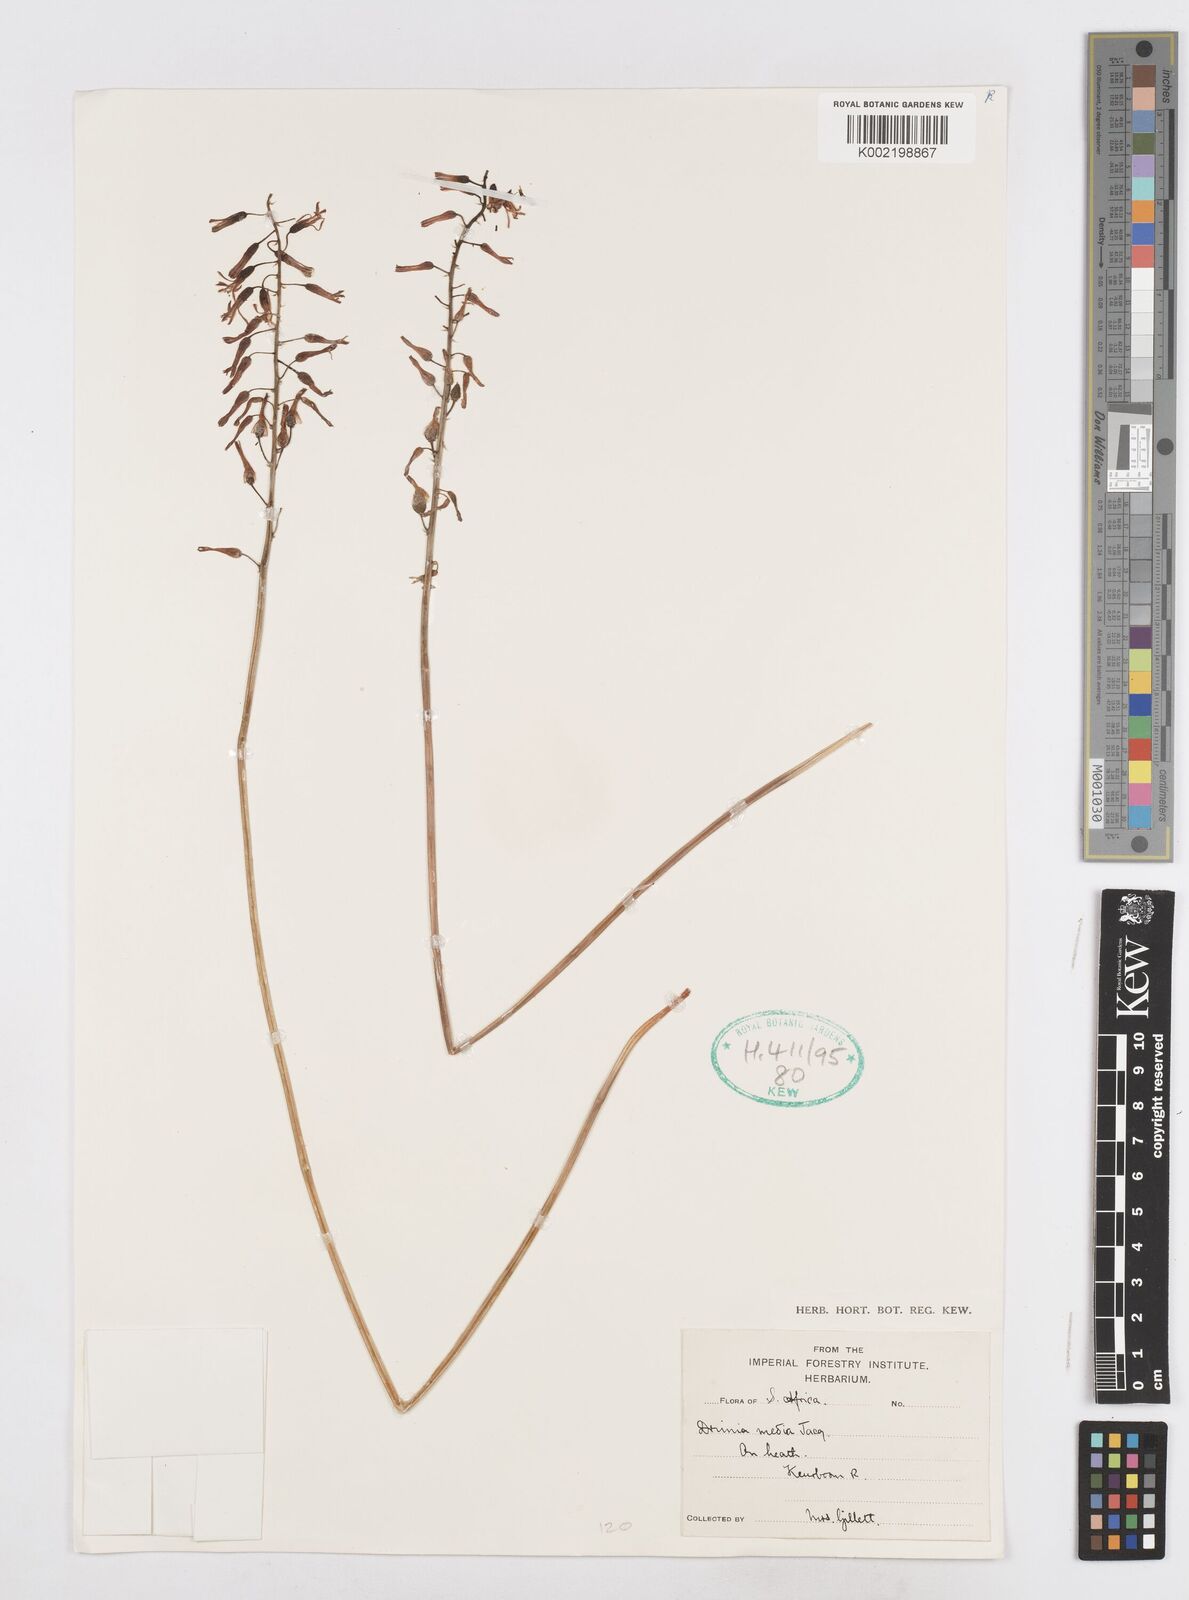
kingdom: Plantae
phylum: Tracheophyta
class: Liliopsida
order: Asparagales
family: Asparagaceae
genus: Drimia
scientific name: Drimia media
